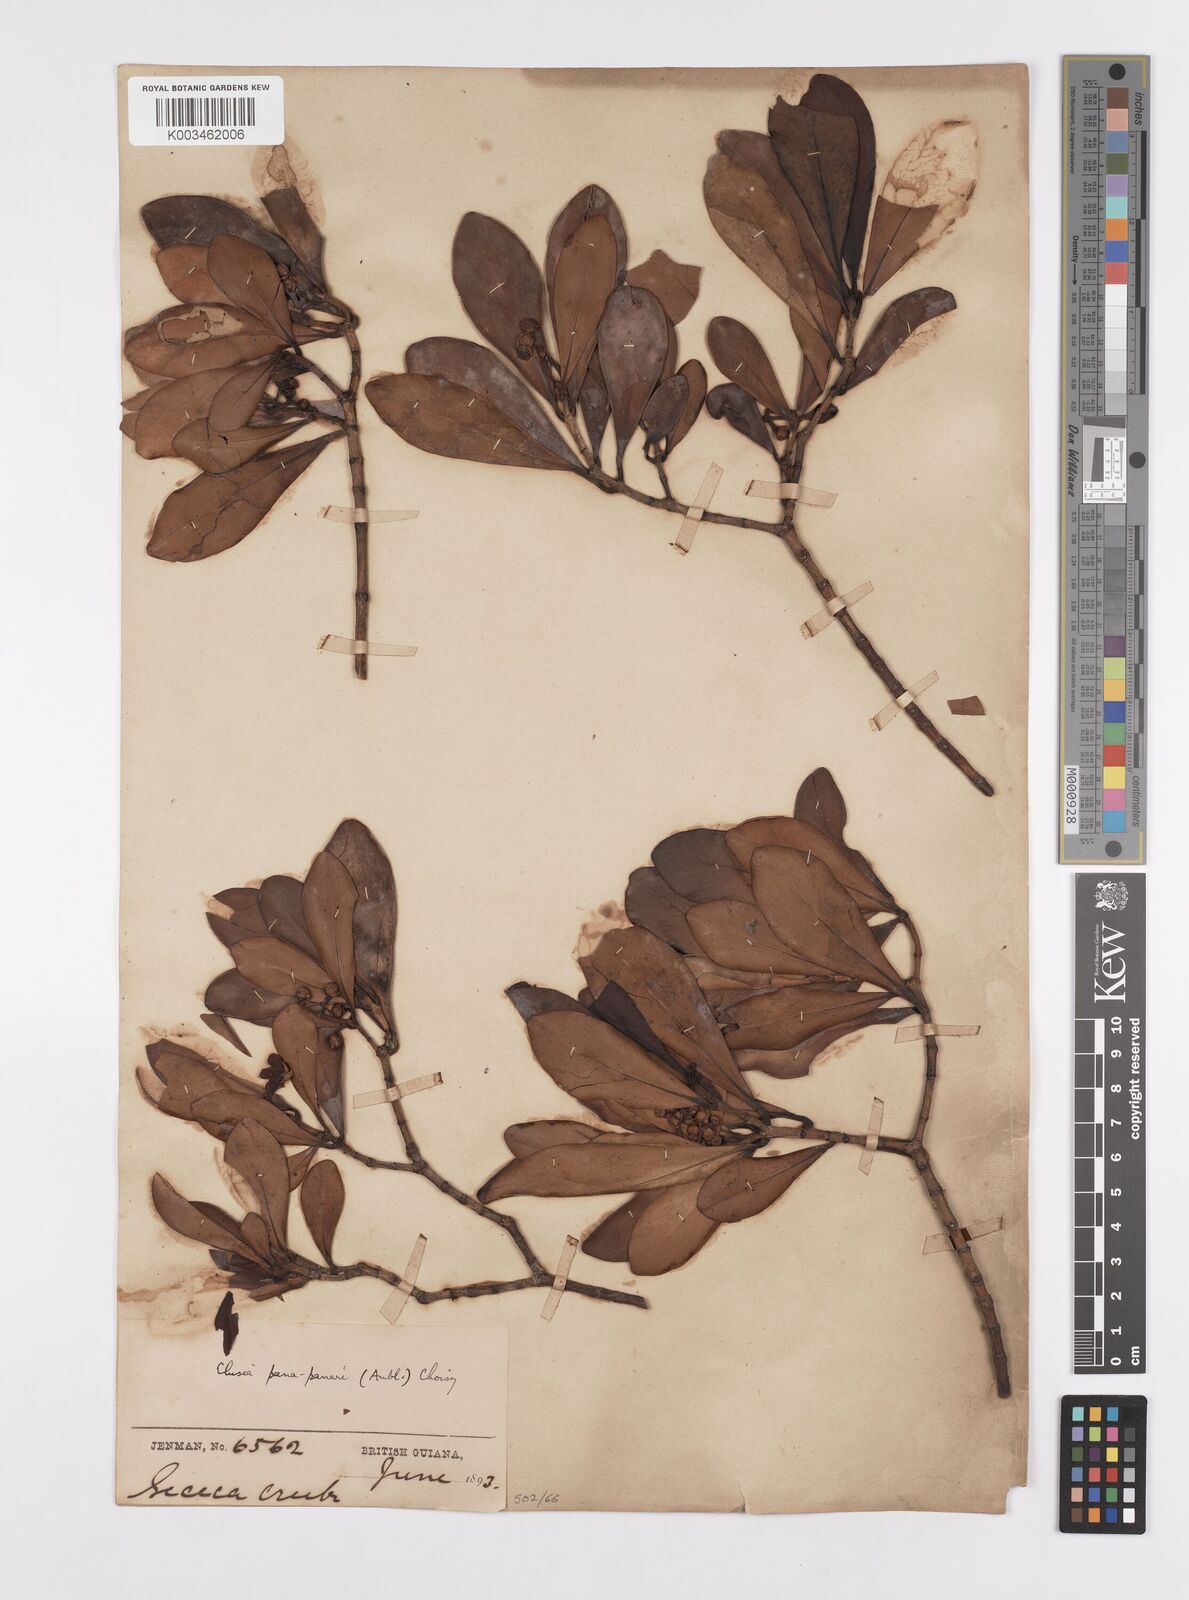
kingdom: Plantae
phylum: Tracheophyta
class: Magnoliopsida
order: Malpighiales
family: Clusiaceae
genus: Clusia
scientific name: Clusia panapanari
